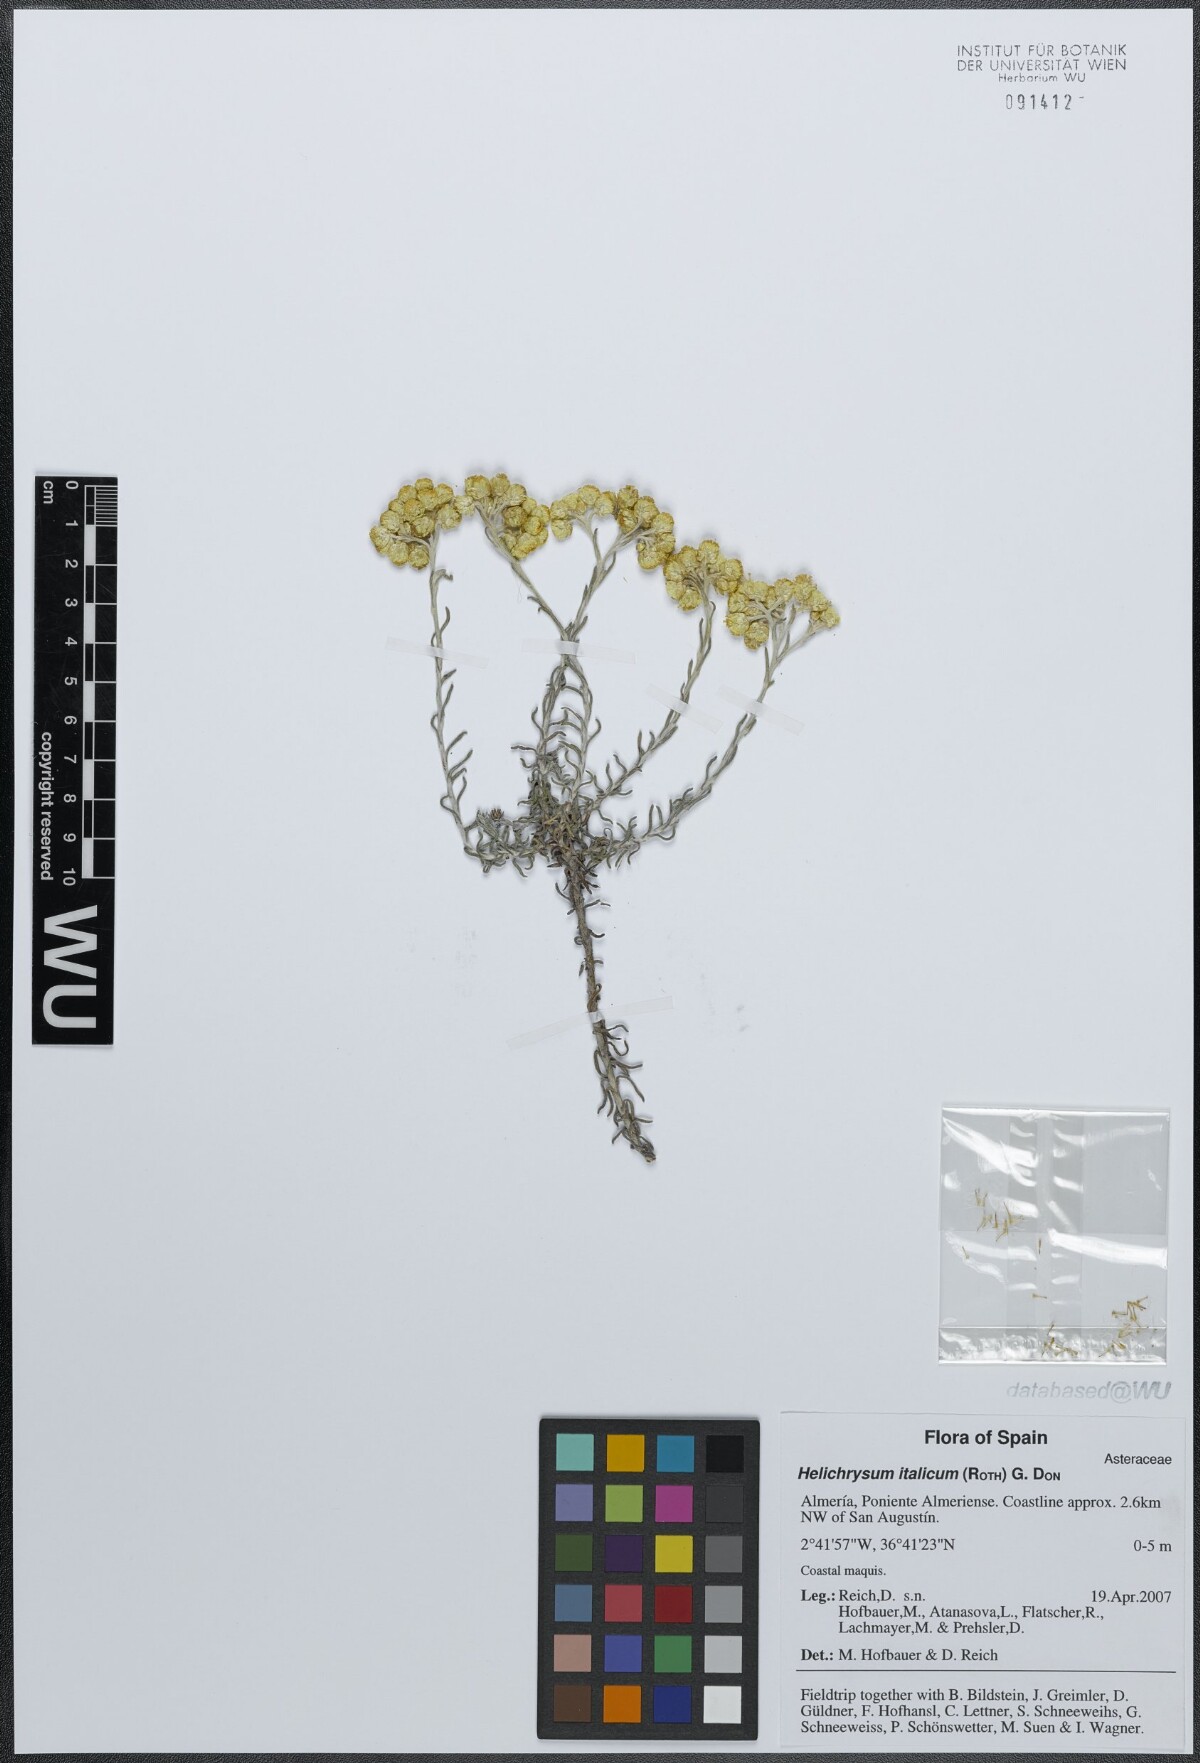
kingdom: Plantae
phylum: Tracheophyta
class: Magnoliopsida
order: Asterales
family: Asteraceae
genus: Helichrysum
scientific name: Helichrysum italicum
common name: Curryplant
